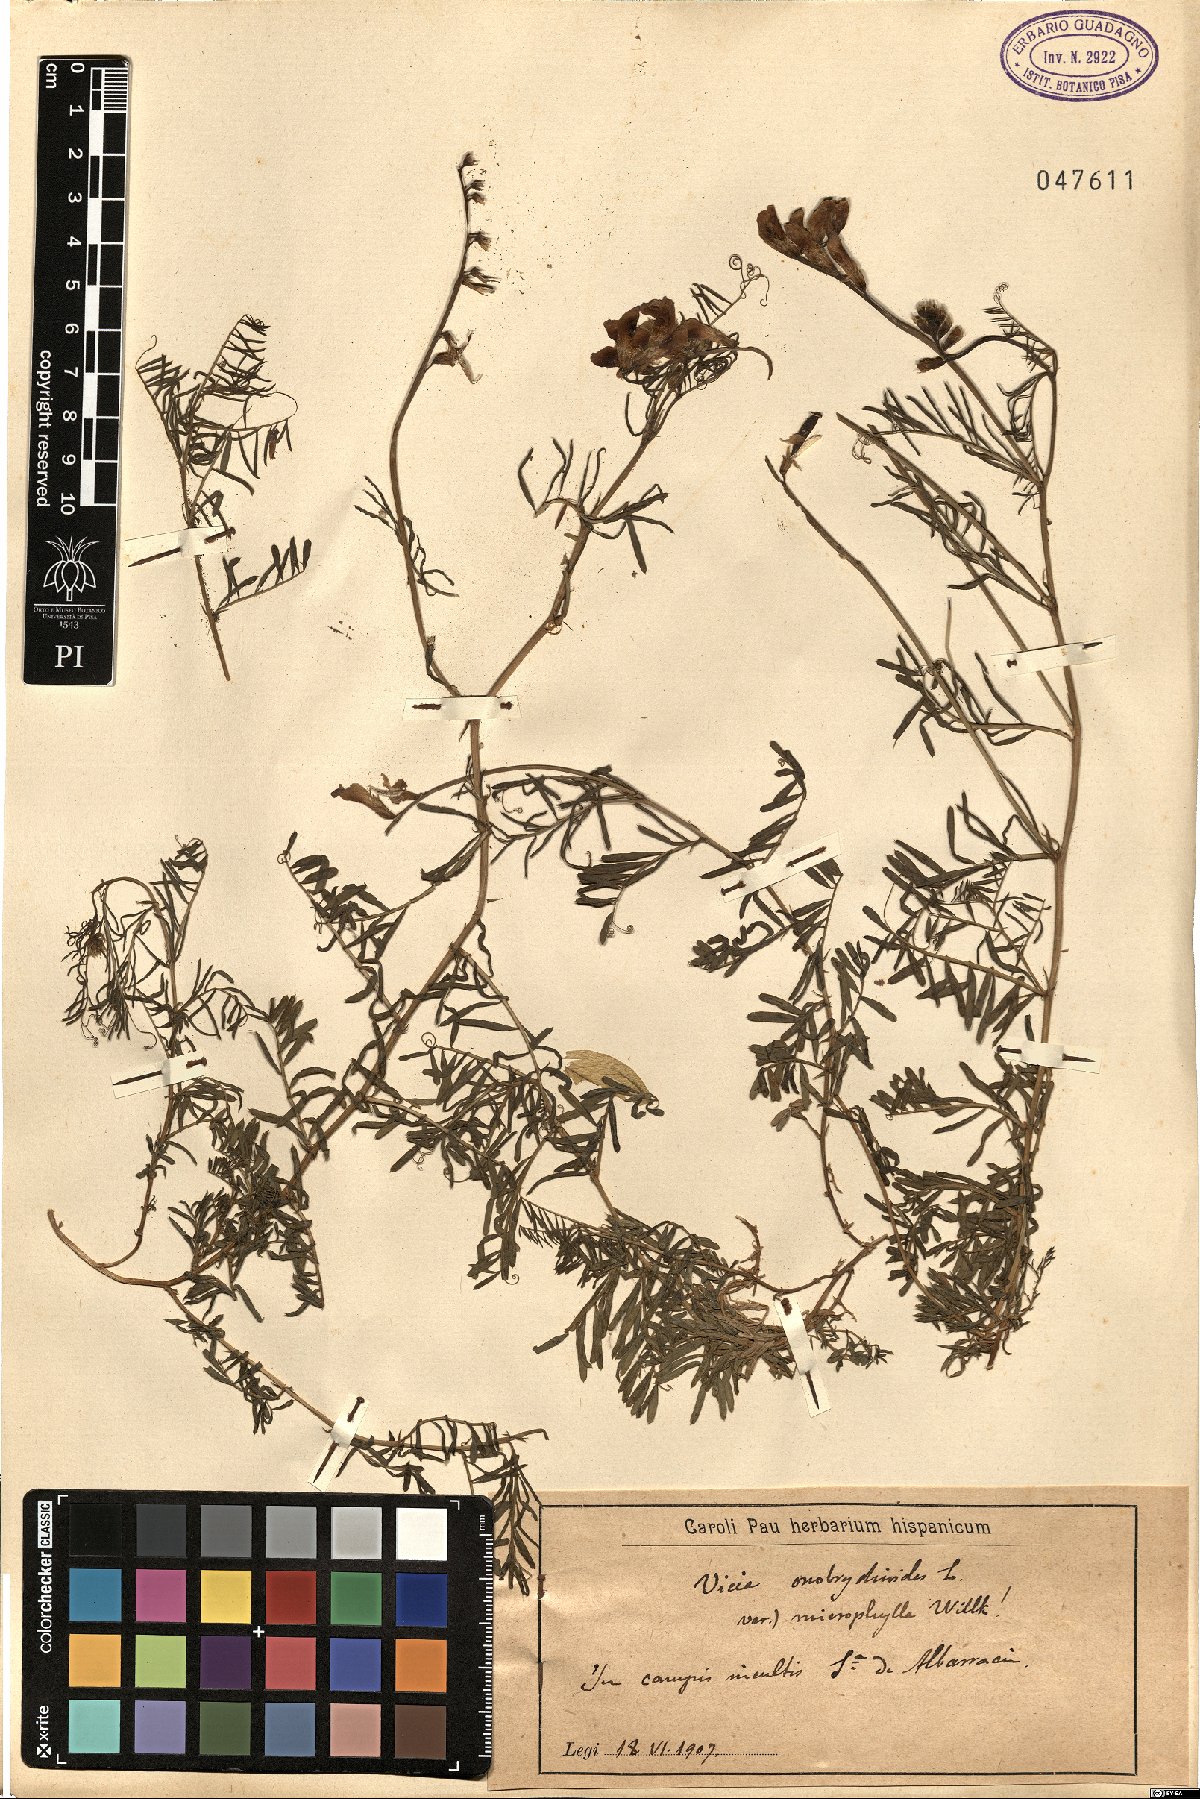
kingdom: Plantae
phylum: Tracheophyta
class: Magnoliopsida
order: Fabales
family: Fabaceae
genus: Vicia
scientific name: Vicia onobrychioides
